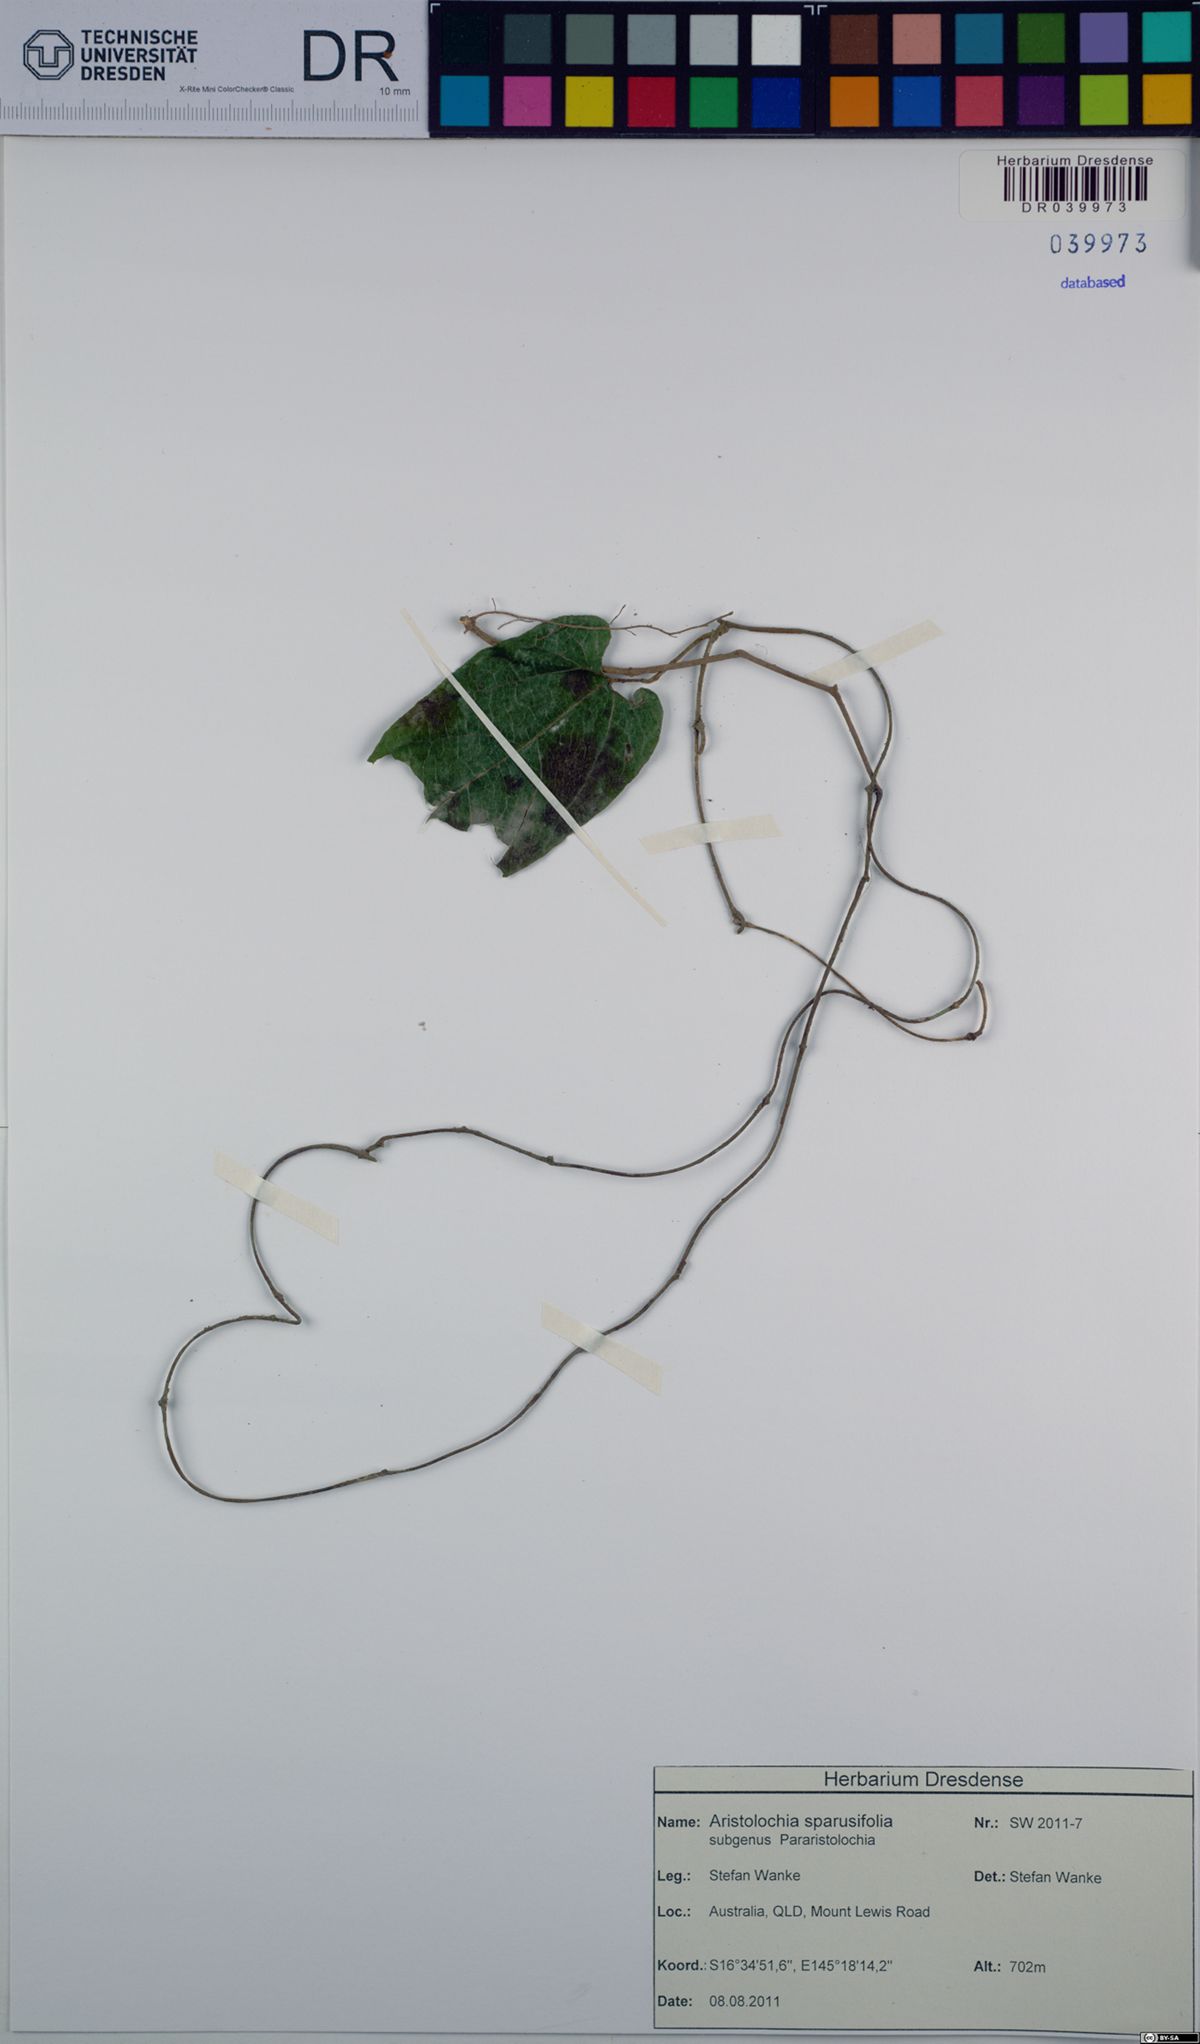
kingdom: Plantae
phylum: Tracheophyta
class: Magnoliopsida
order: Piperales
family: Aristolochiaceae
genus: Aristolochia
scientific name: Aristolochia sparusifolia
